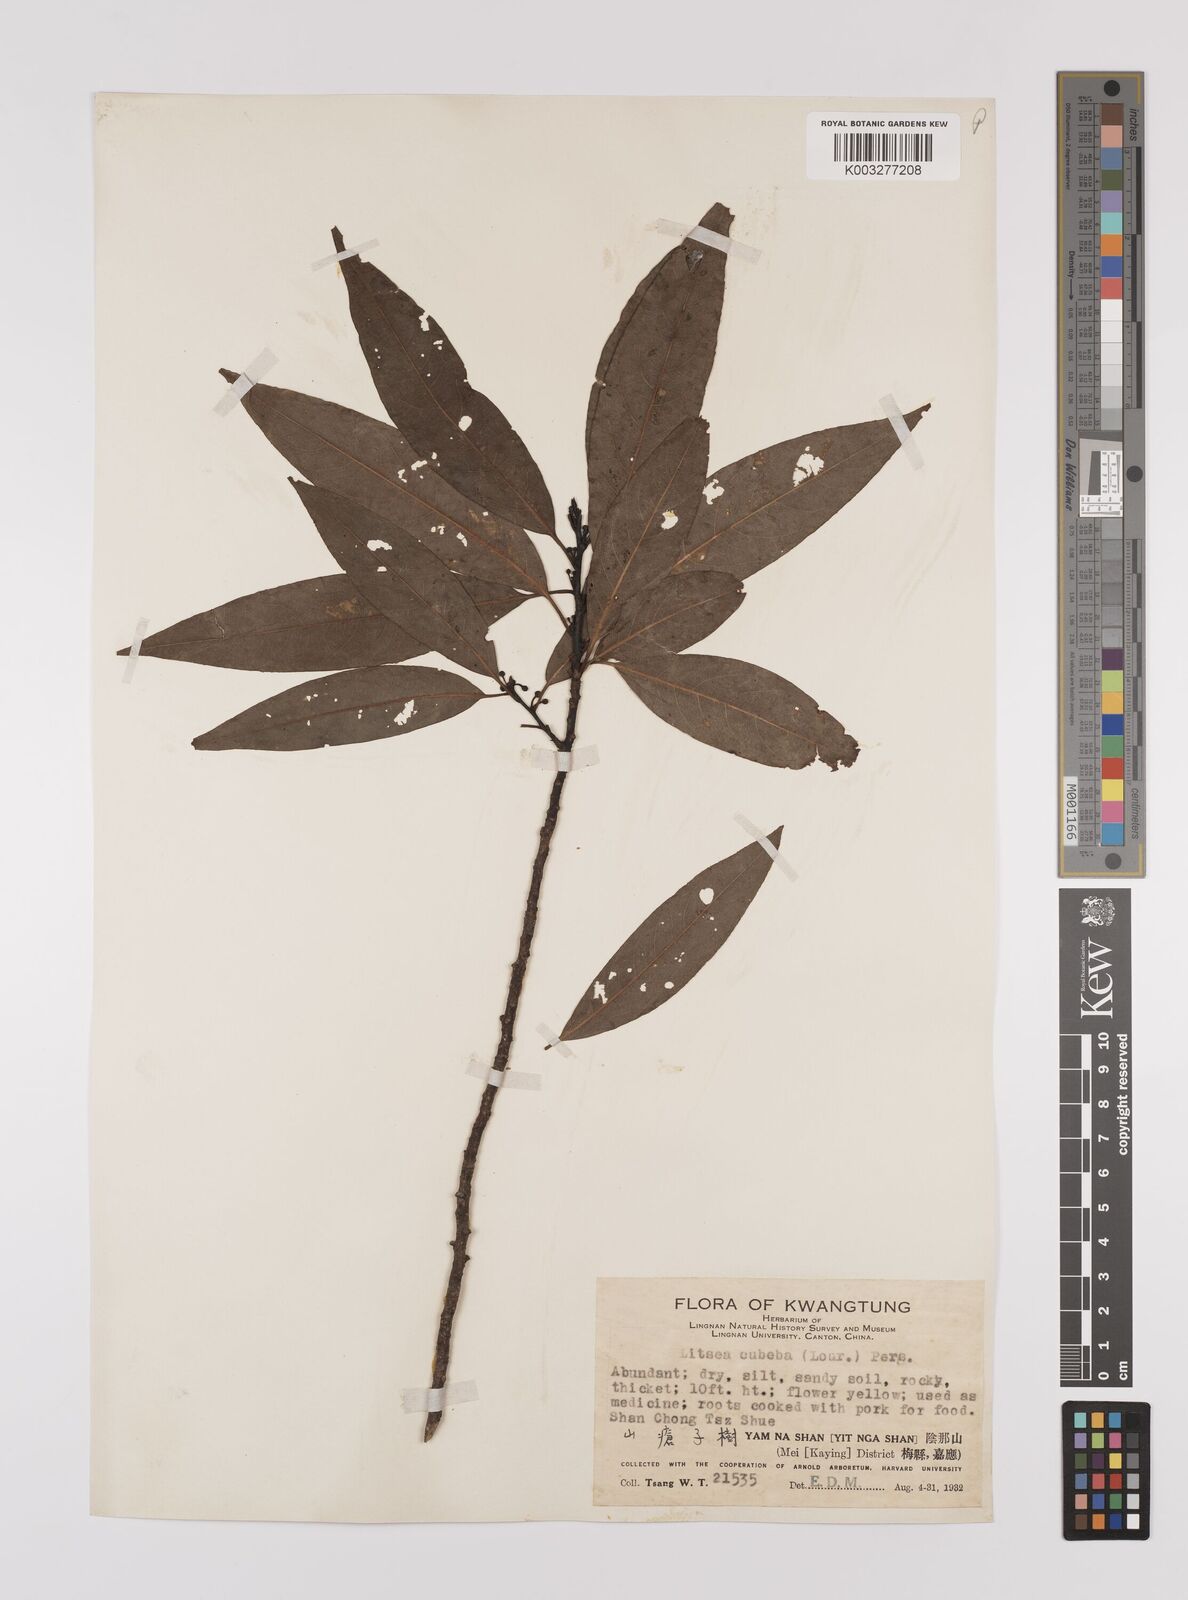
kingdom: Plantae
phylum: Tracheophyta
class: Magnoliopsida
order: Laurales
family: Lauraceae
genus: Litsea
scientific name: Litsea cubeba
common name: Mountain-pepper
